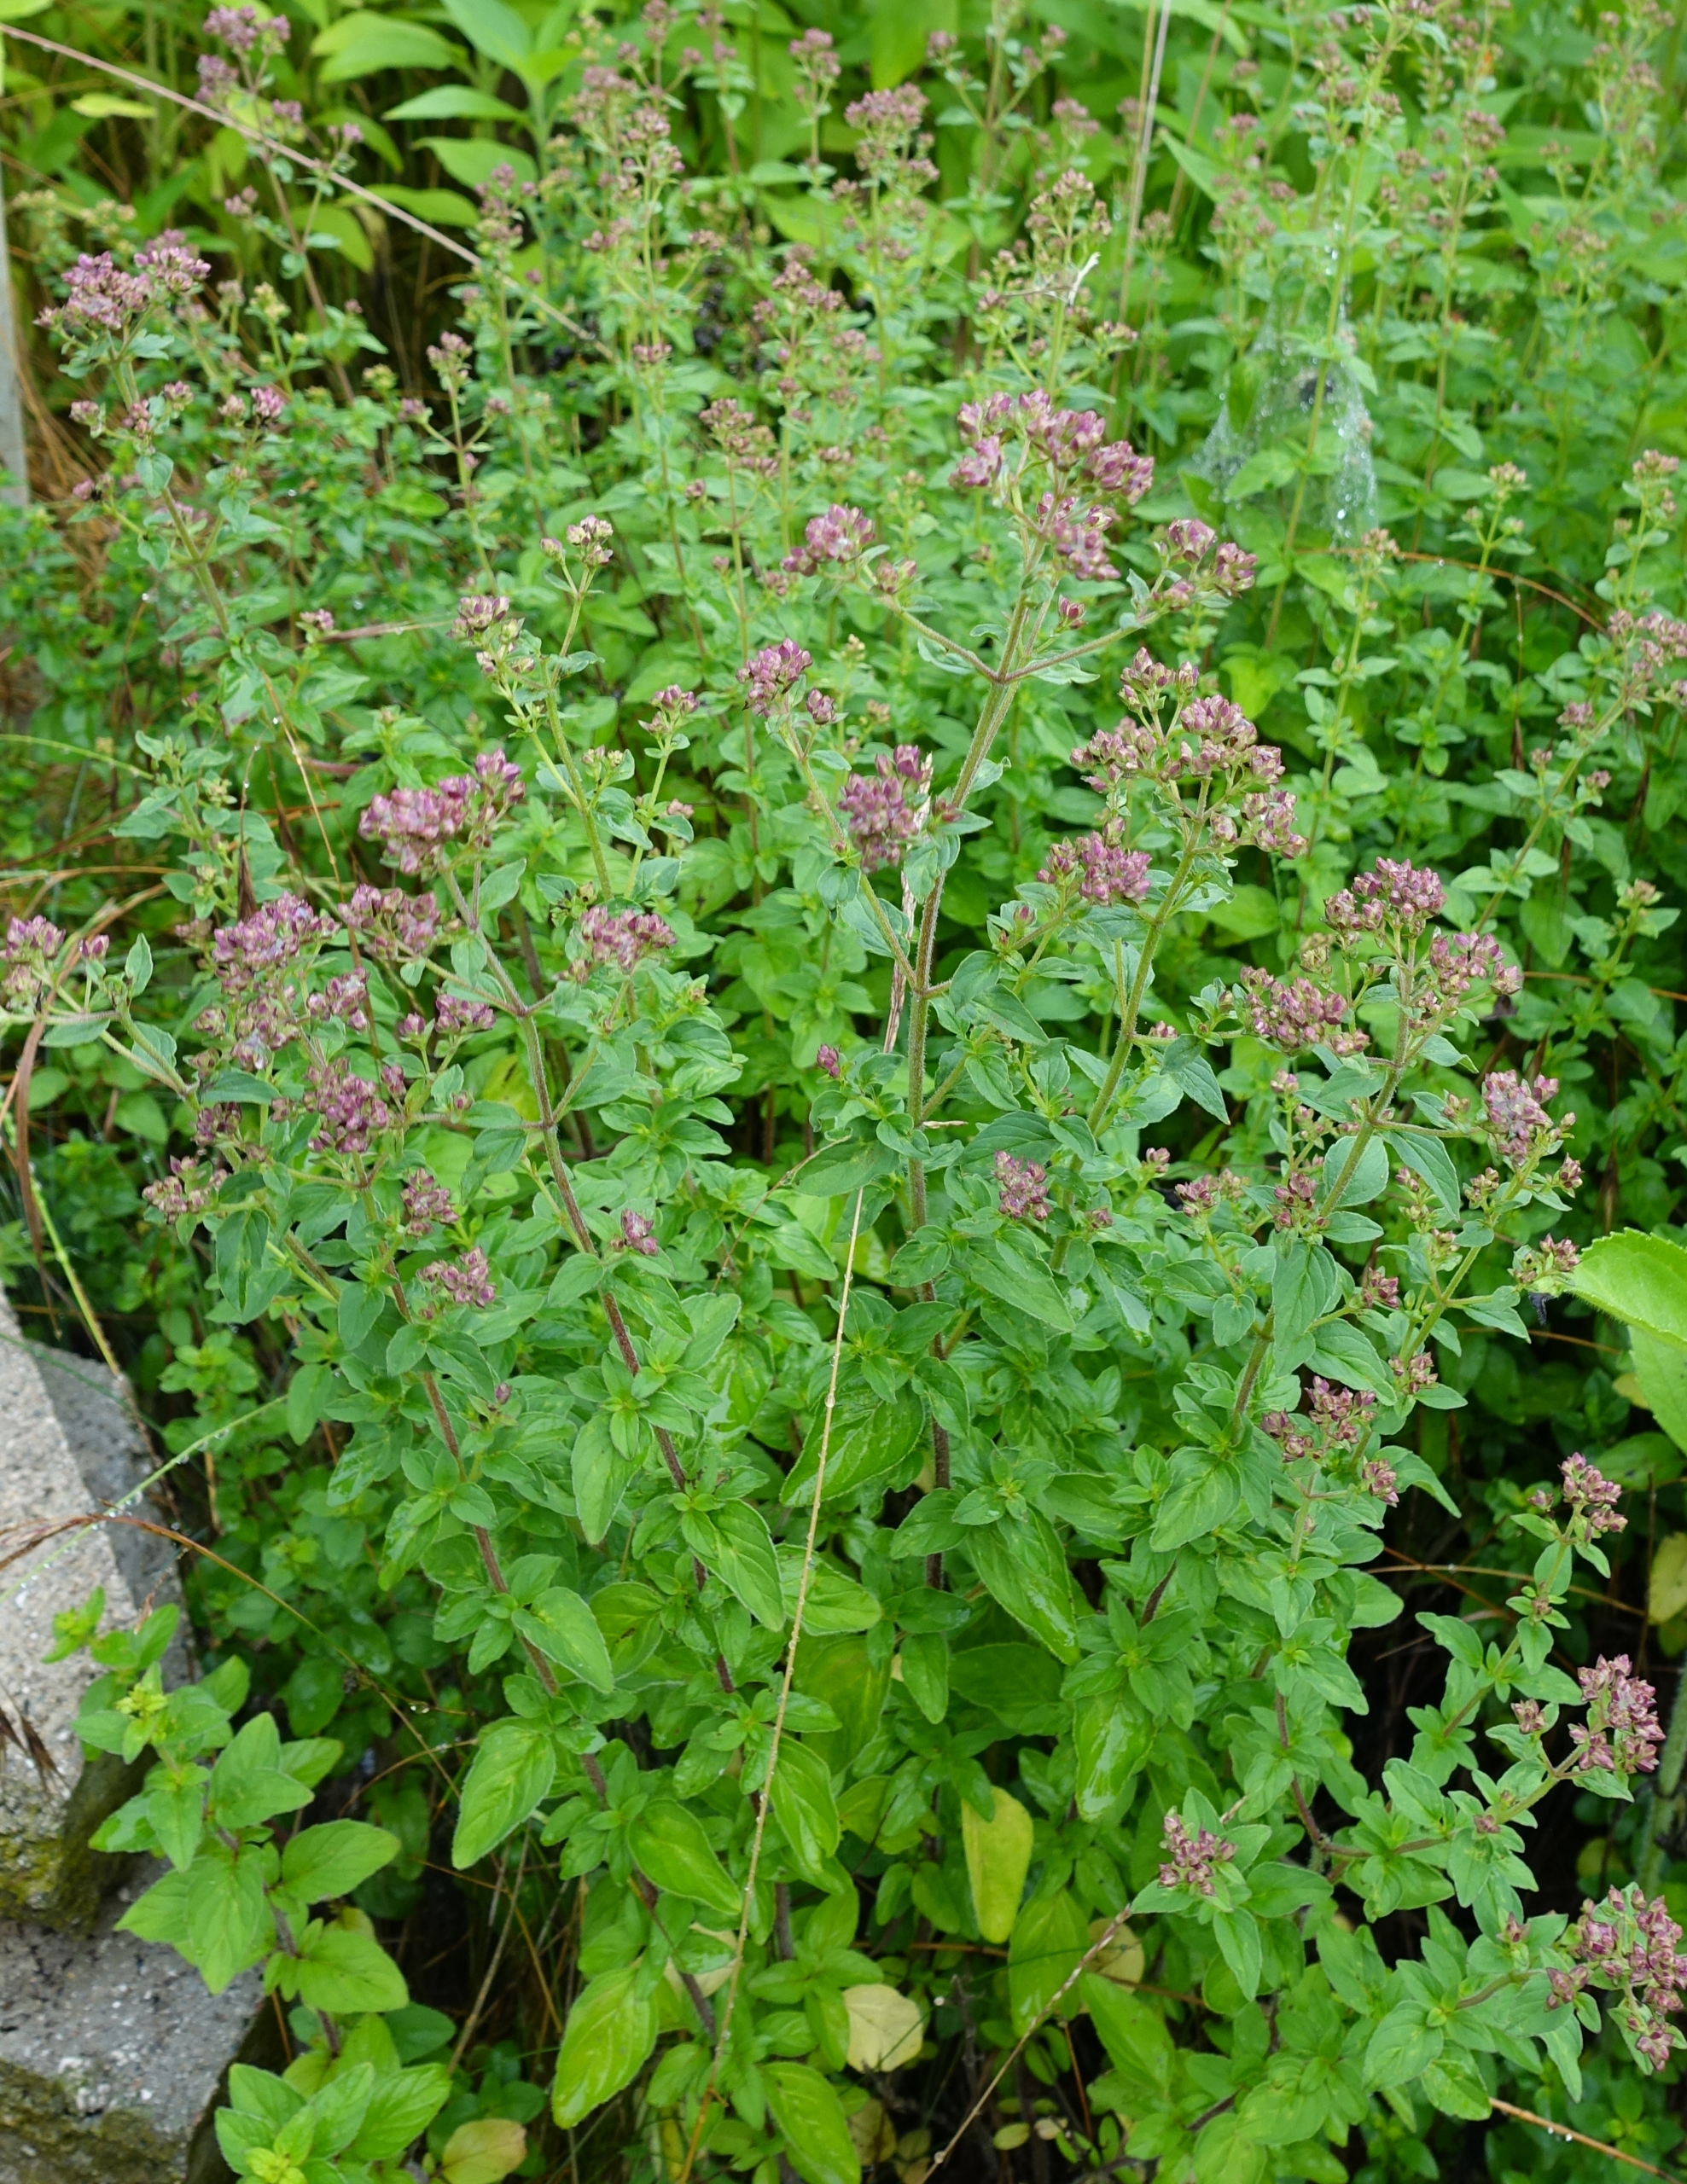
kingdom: Plantae
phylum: Tracheophyta
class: Magnoliopsida
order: Lamiales
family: Lamiaceae
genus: Origanum
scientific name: Origanum vulgare
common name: Merian
